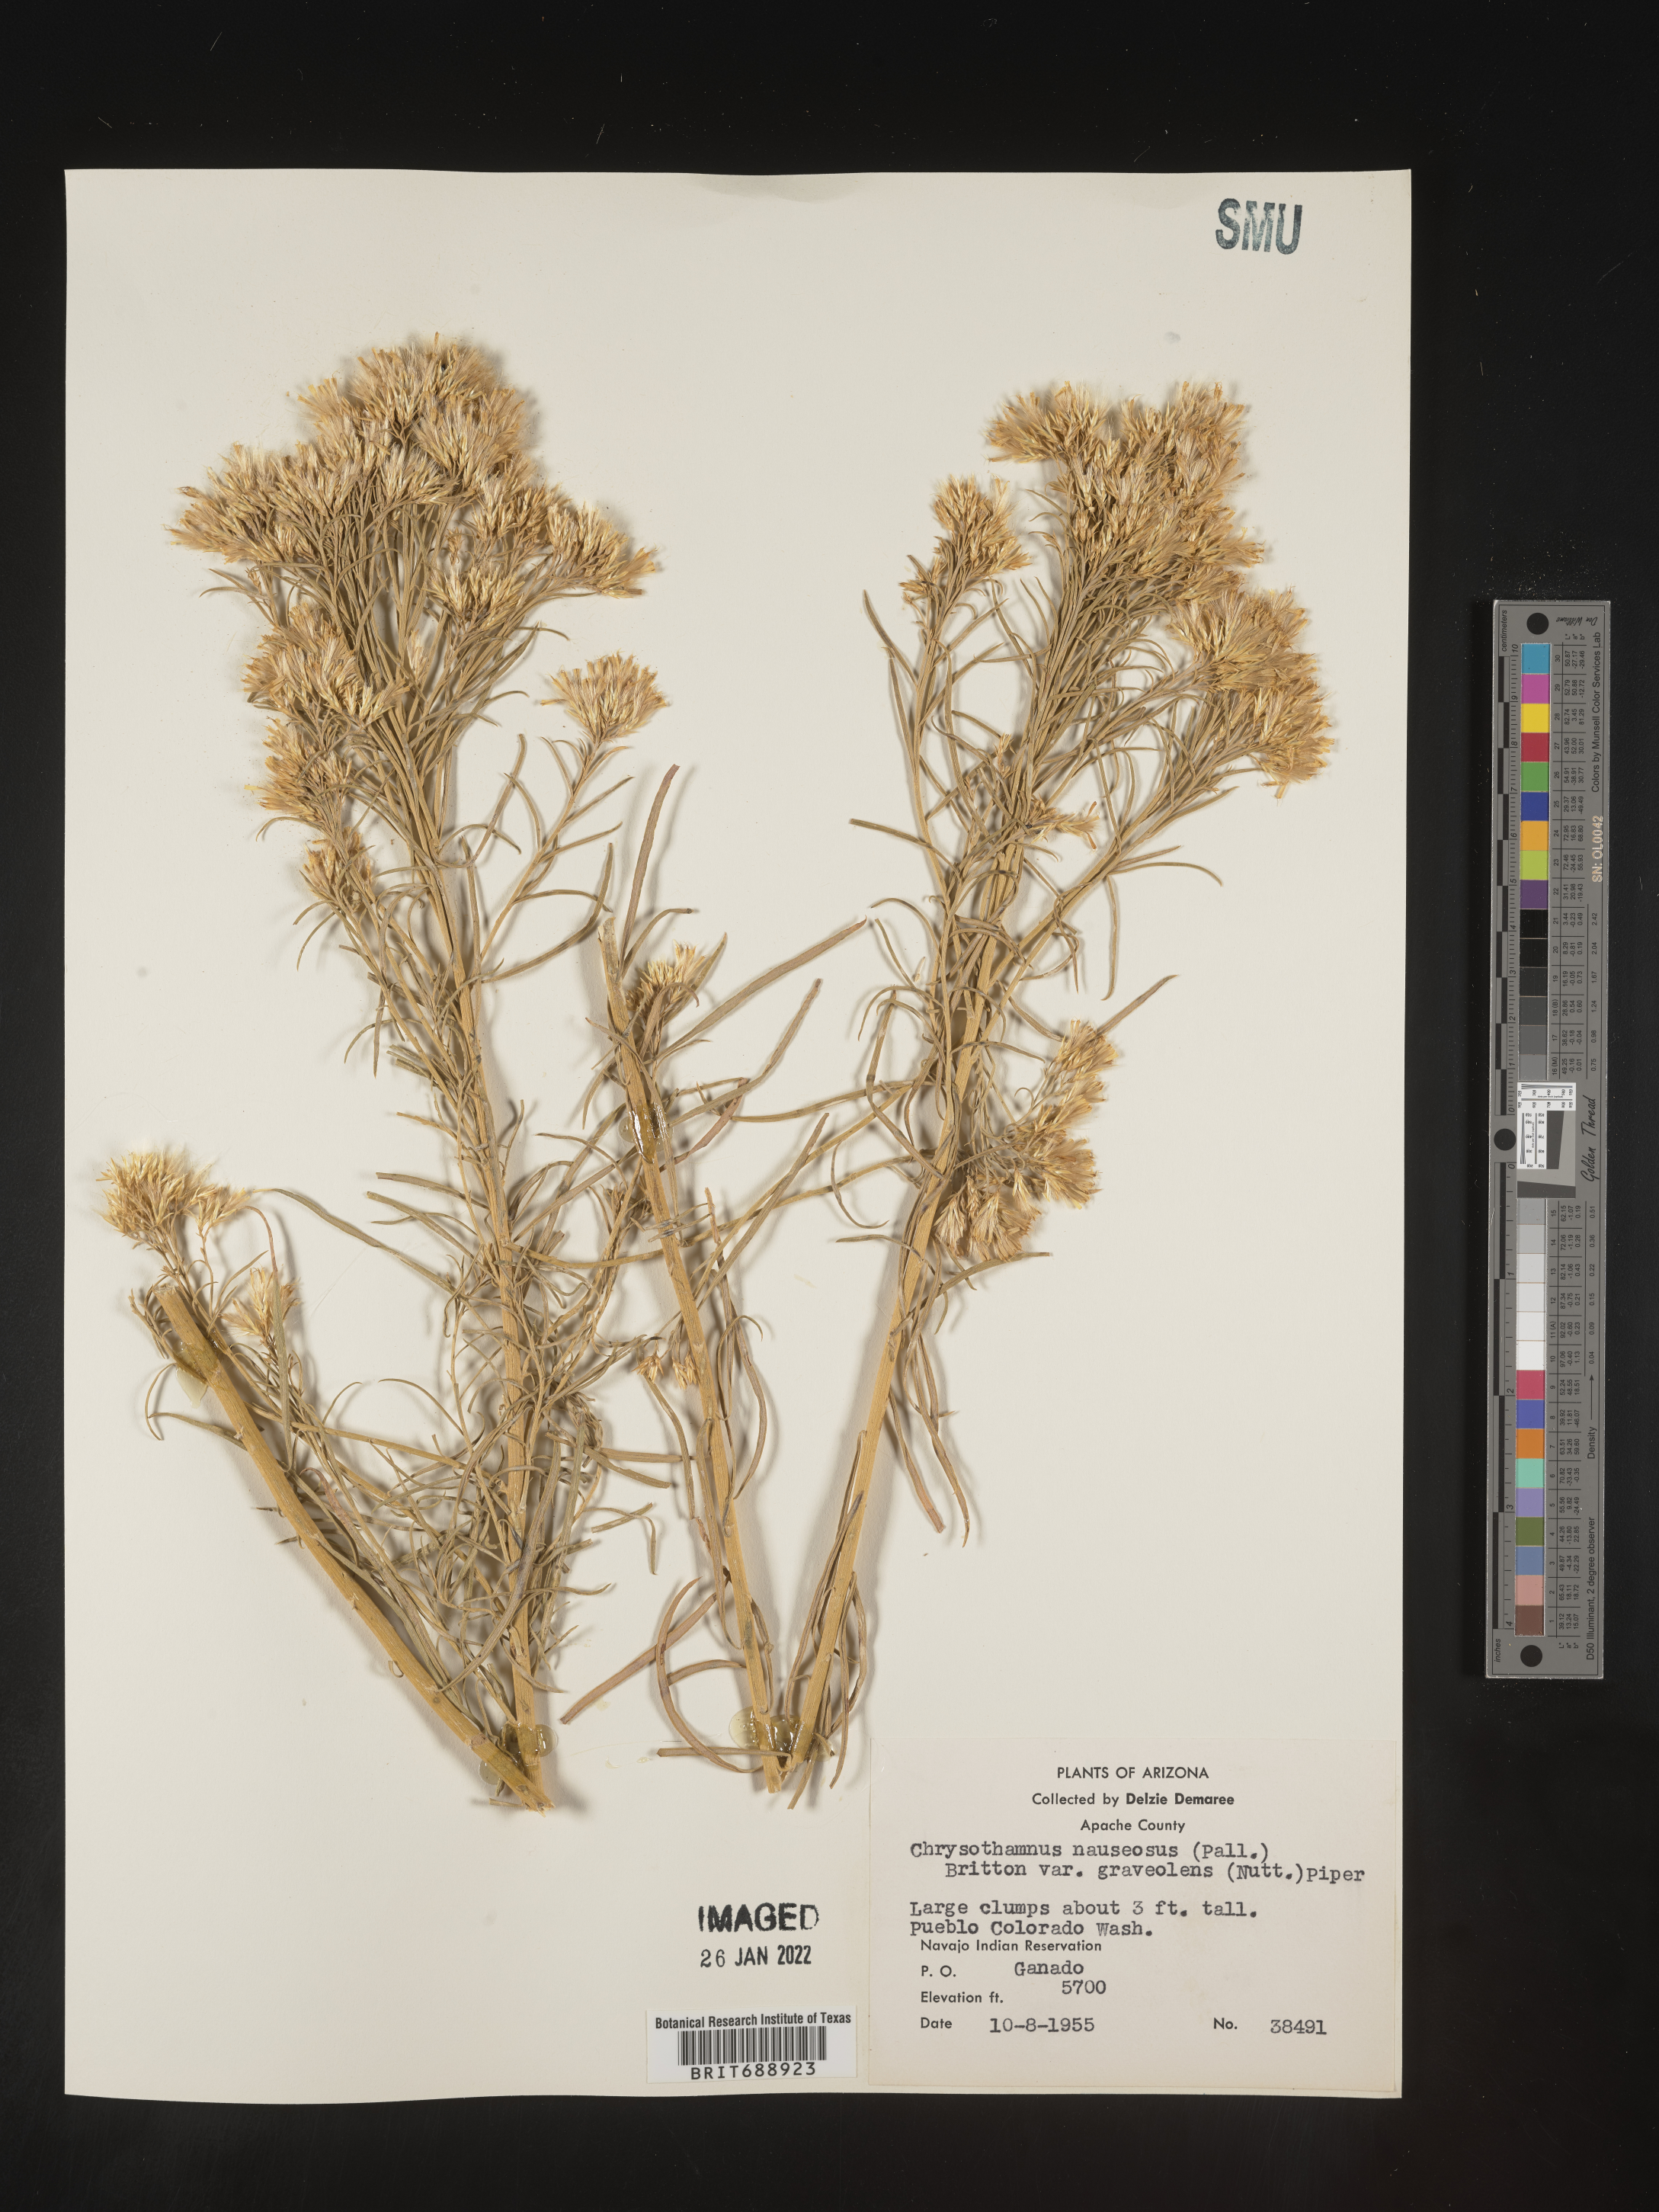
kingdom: Plantae
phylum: Tracheophyta
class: Magnoliopsida
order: Asterales
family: Asteraceae
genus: Ericameria
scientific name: Ericameria nauseosa
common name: Rubber rabbitbrush
